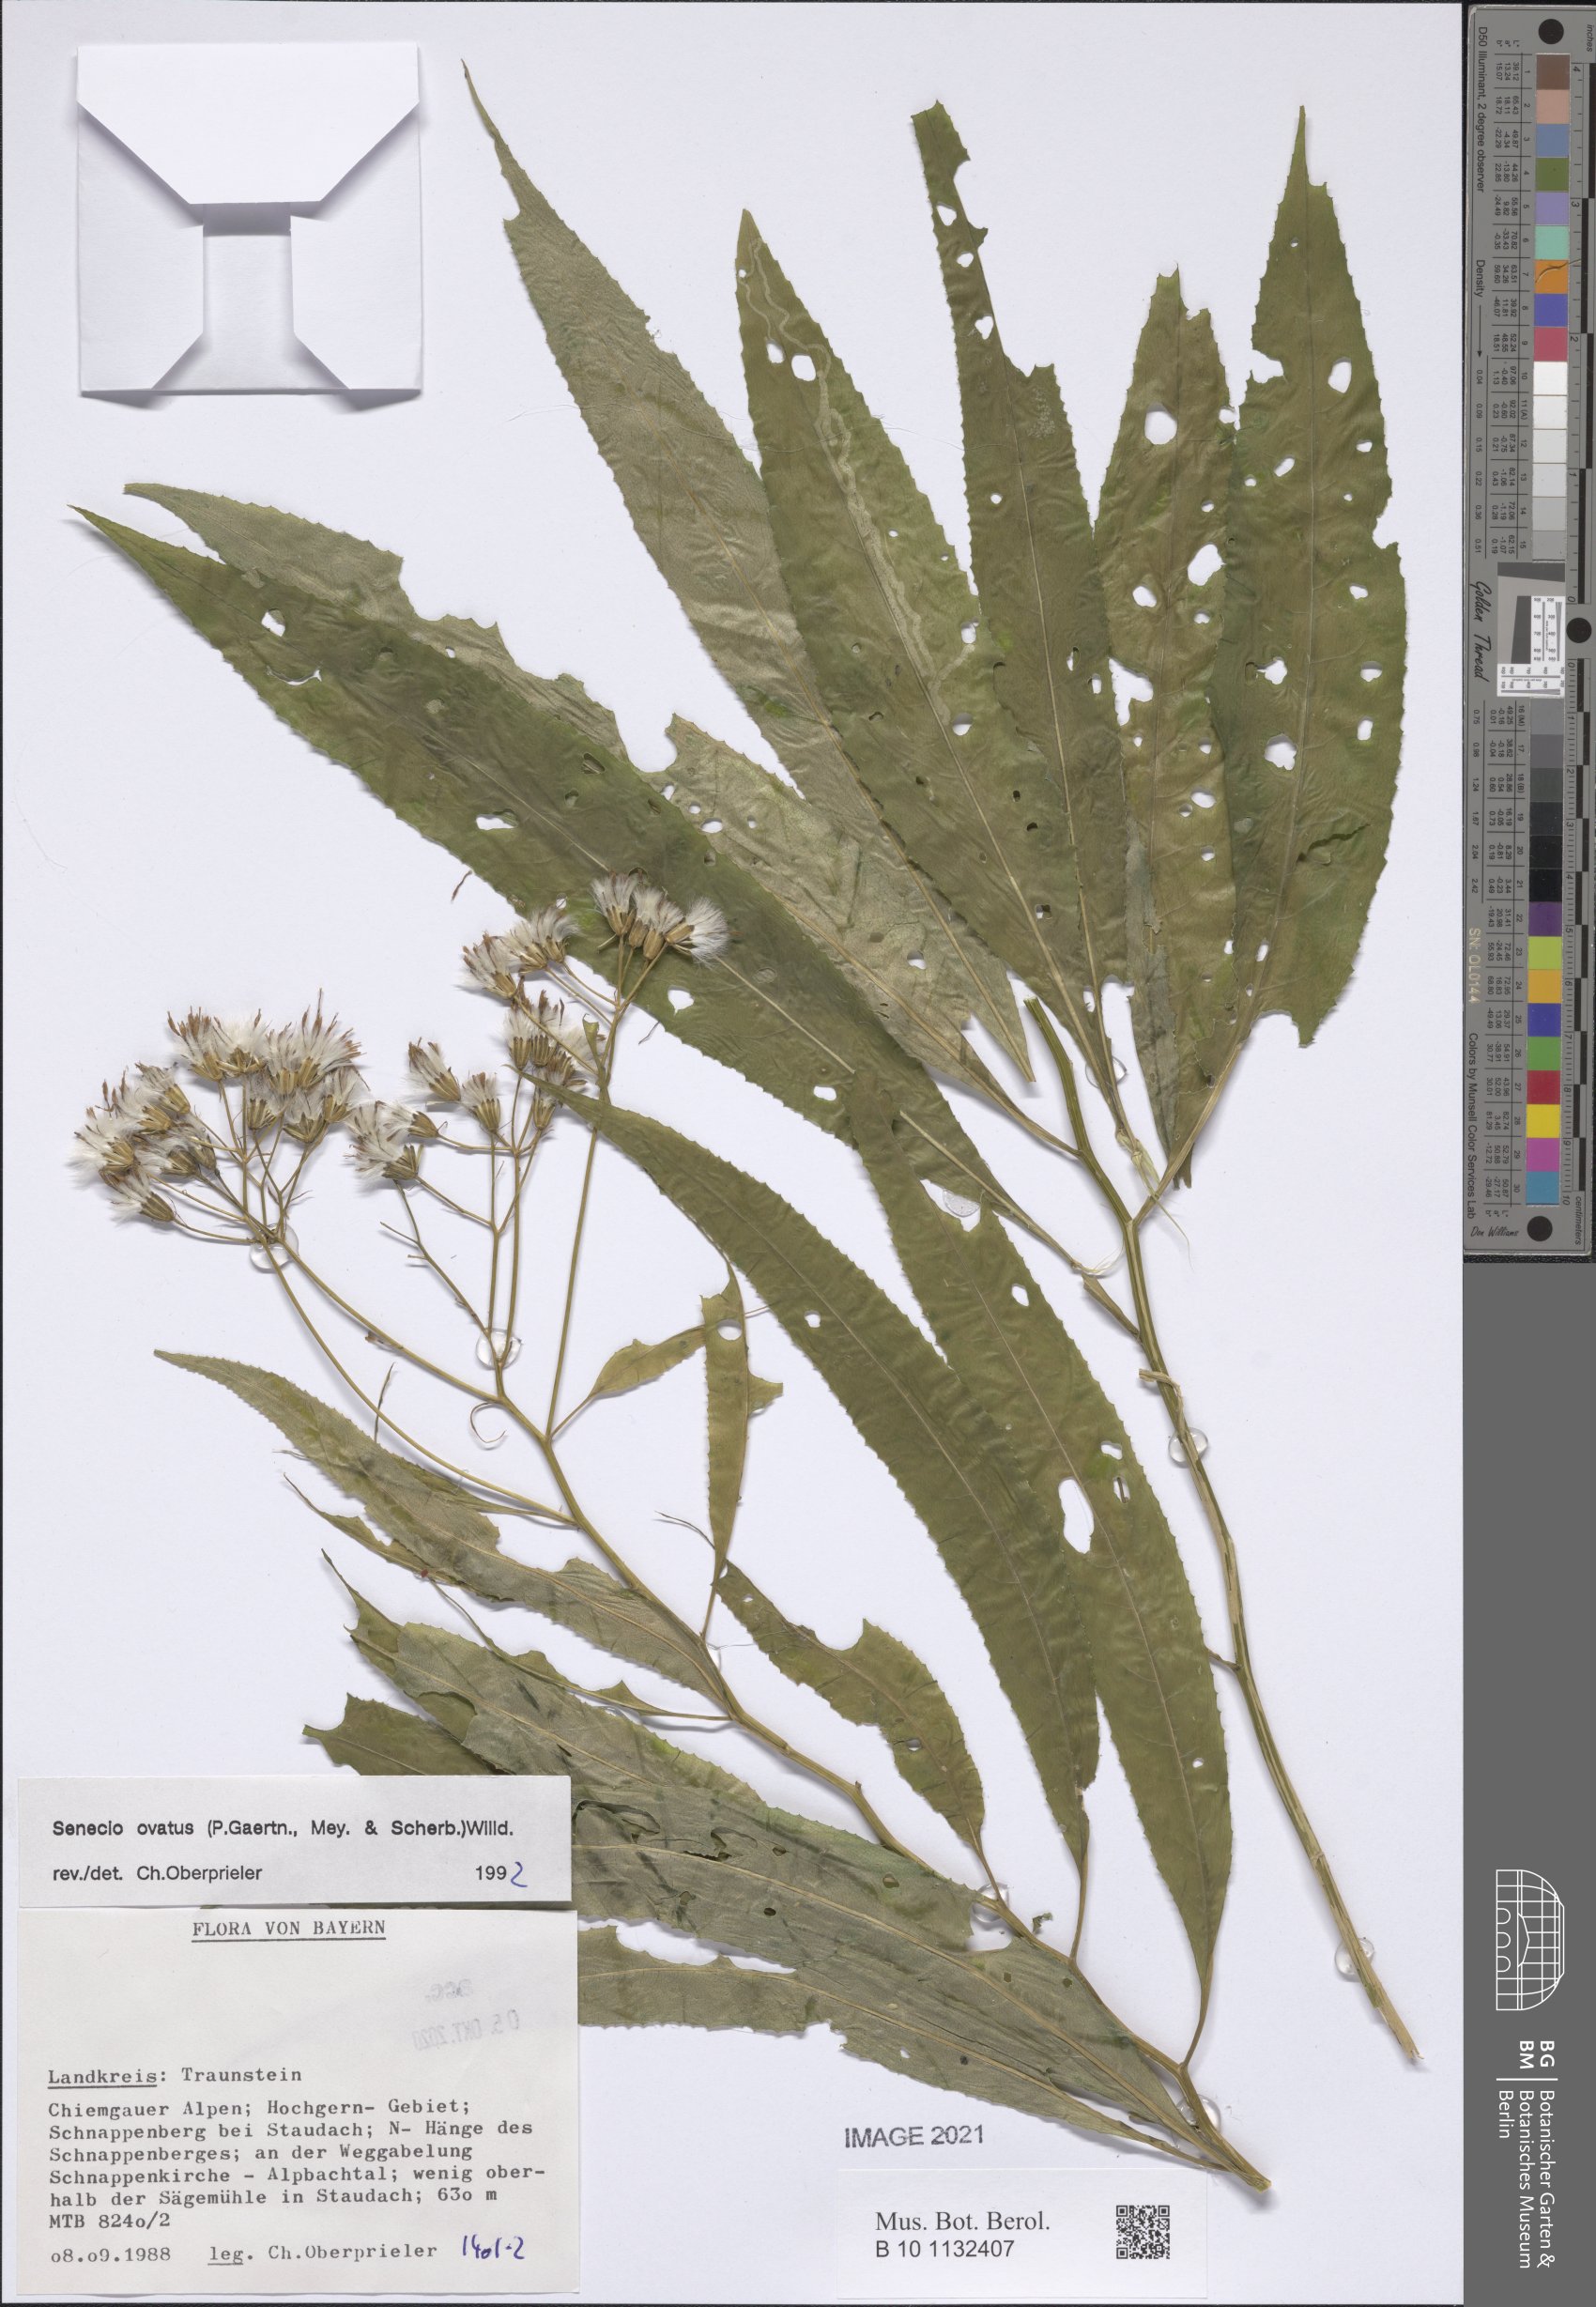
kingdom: Plantae
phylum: Tracheophyta
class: Magnoliopsida
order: Asterales
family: Asteraceae
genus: Senecio
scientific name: Senecio ovatus
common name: Wood ragwort
